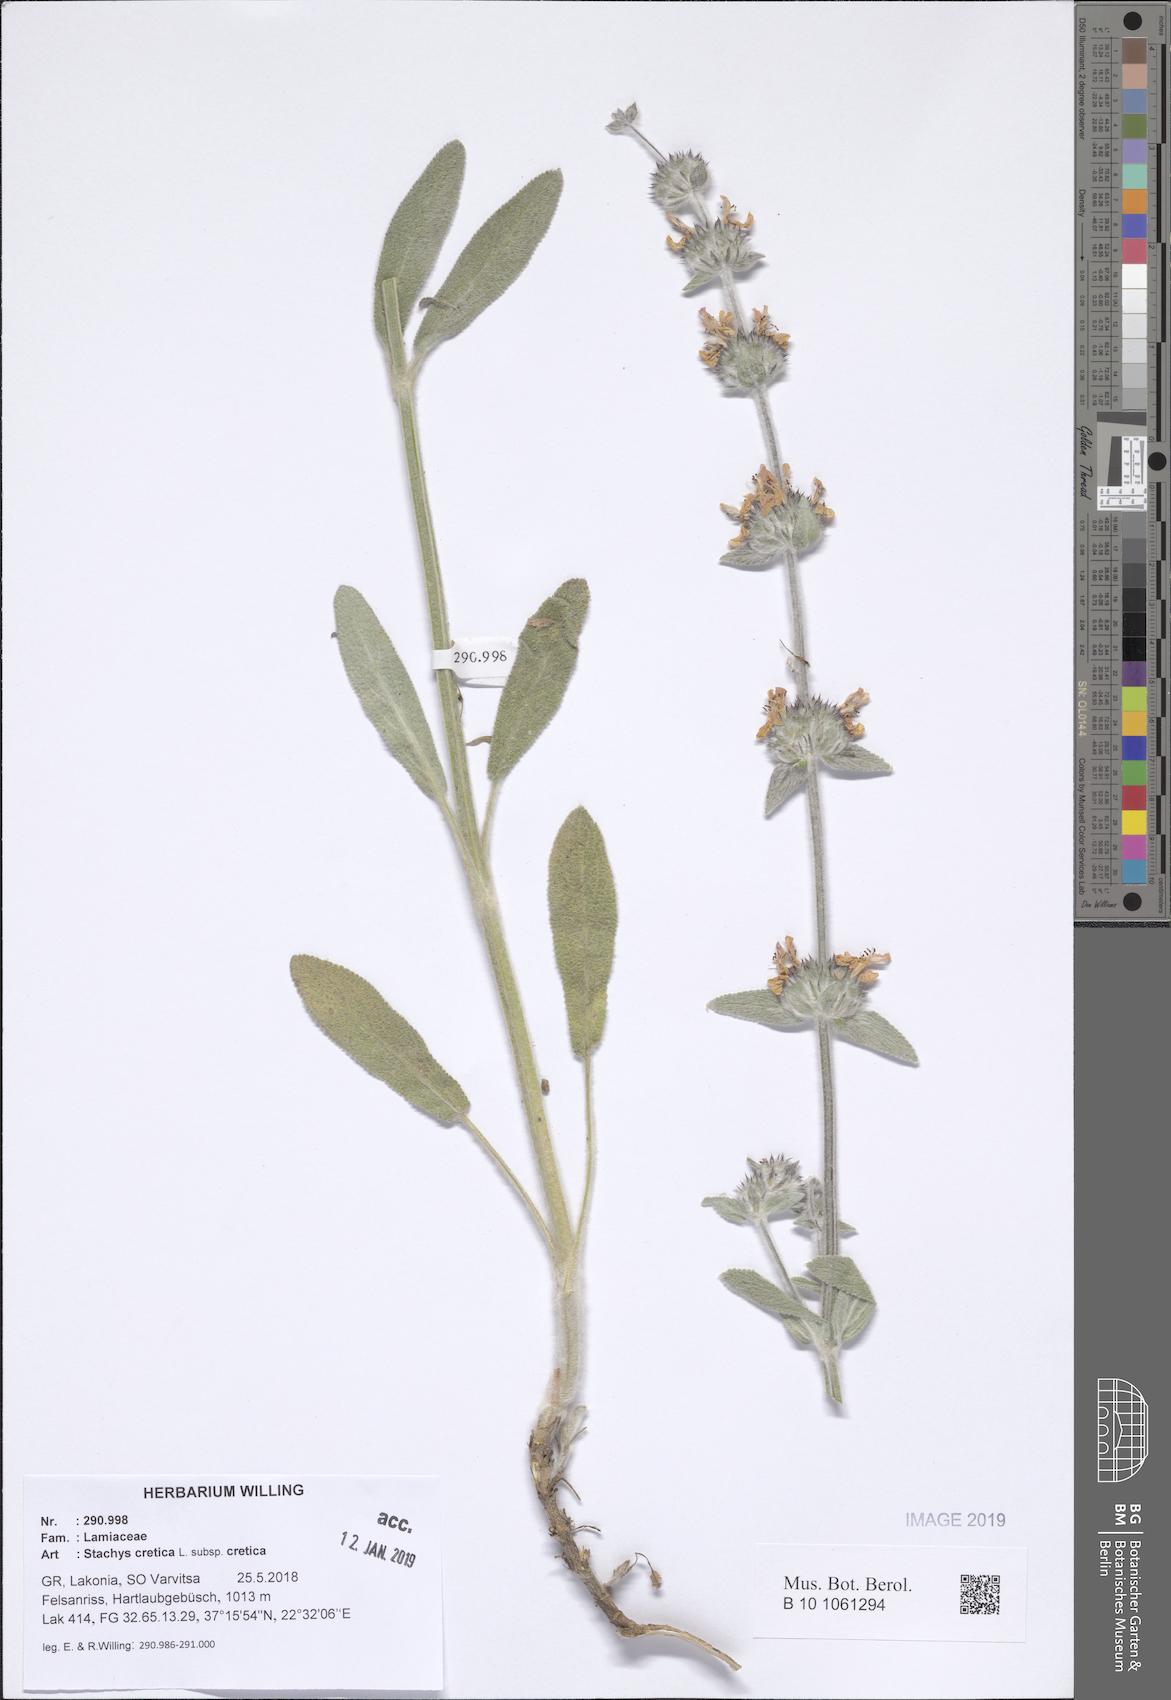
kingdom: Plantae
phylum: Tracheophyta
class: Magnoliopsida
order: Lamiales
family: Lamiaceae
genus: Stachys
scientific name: Stachys cretica
